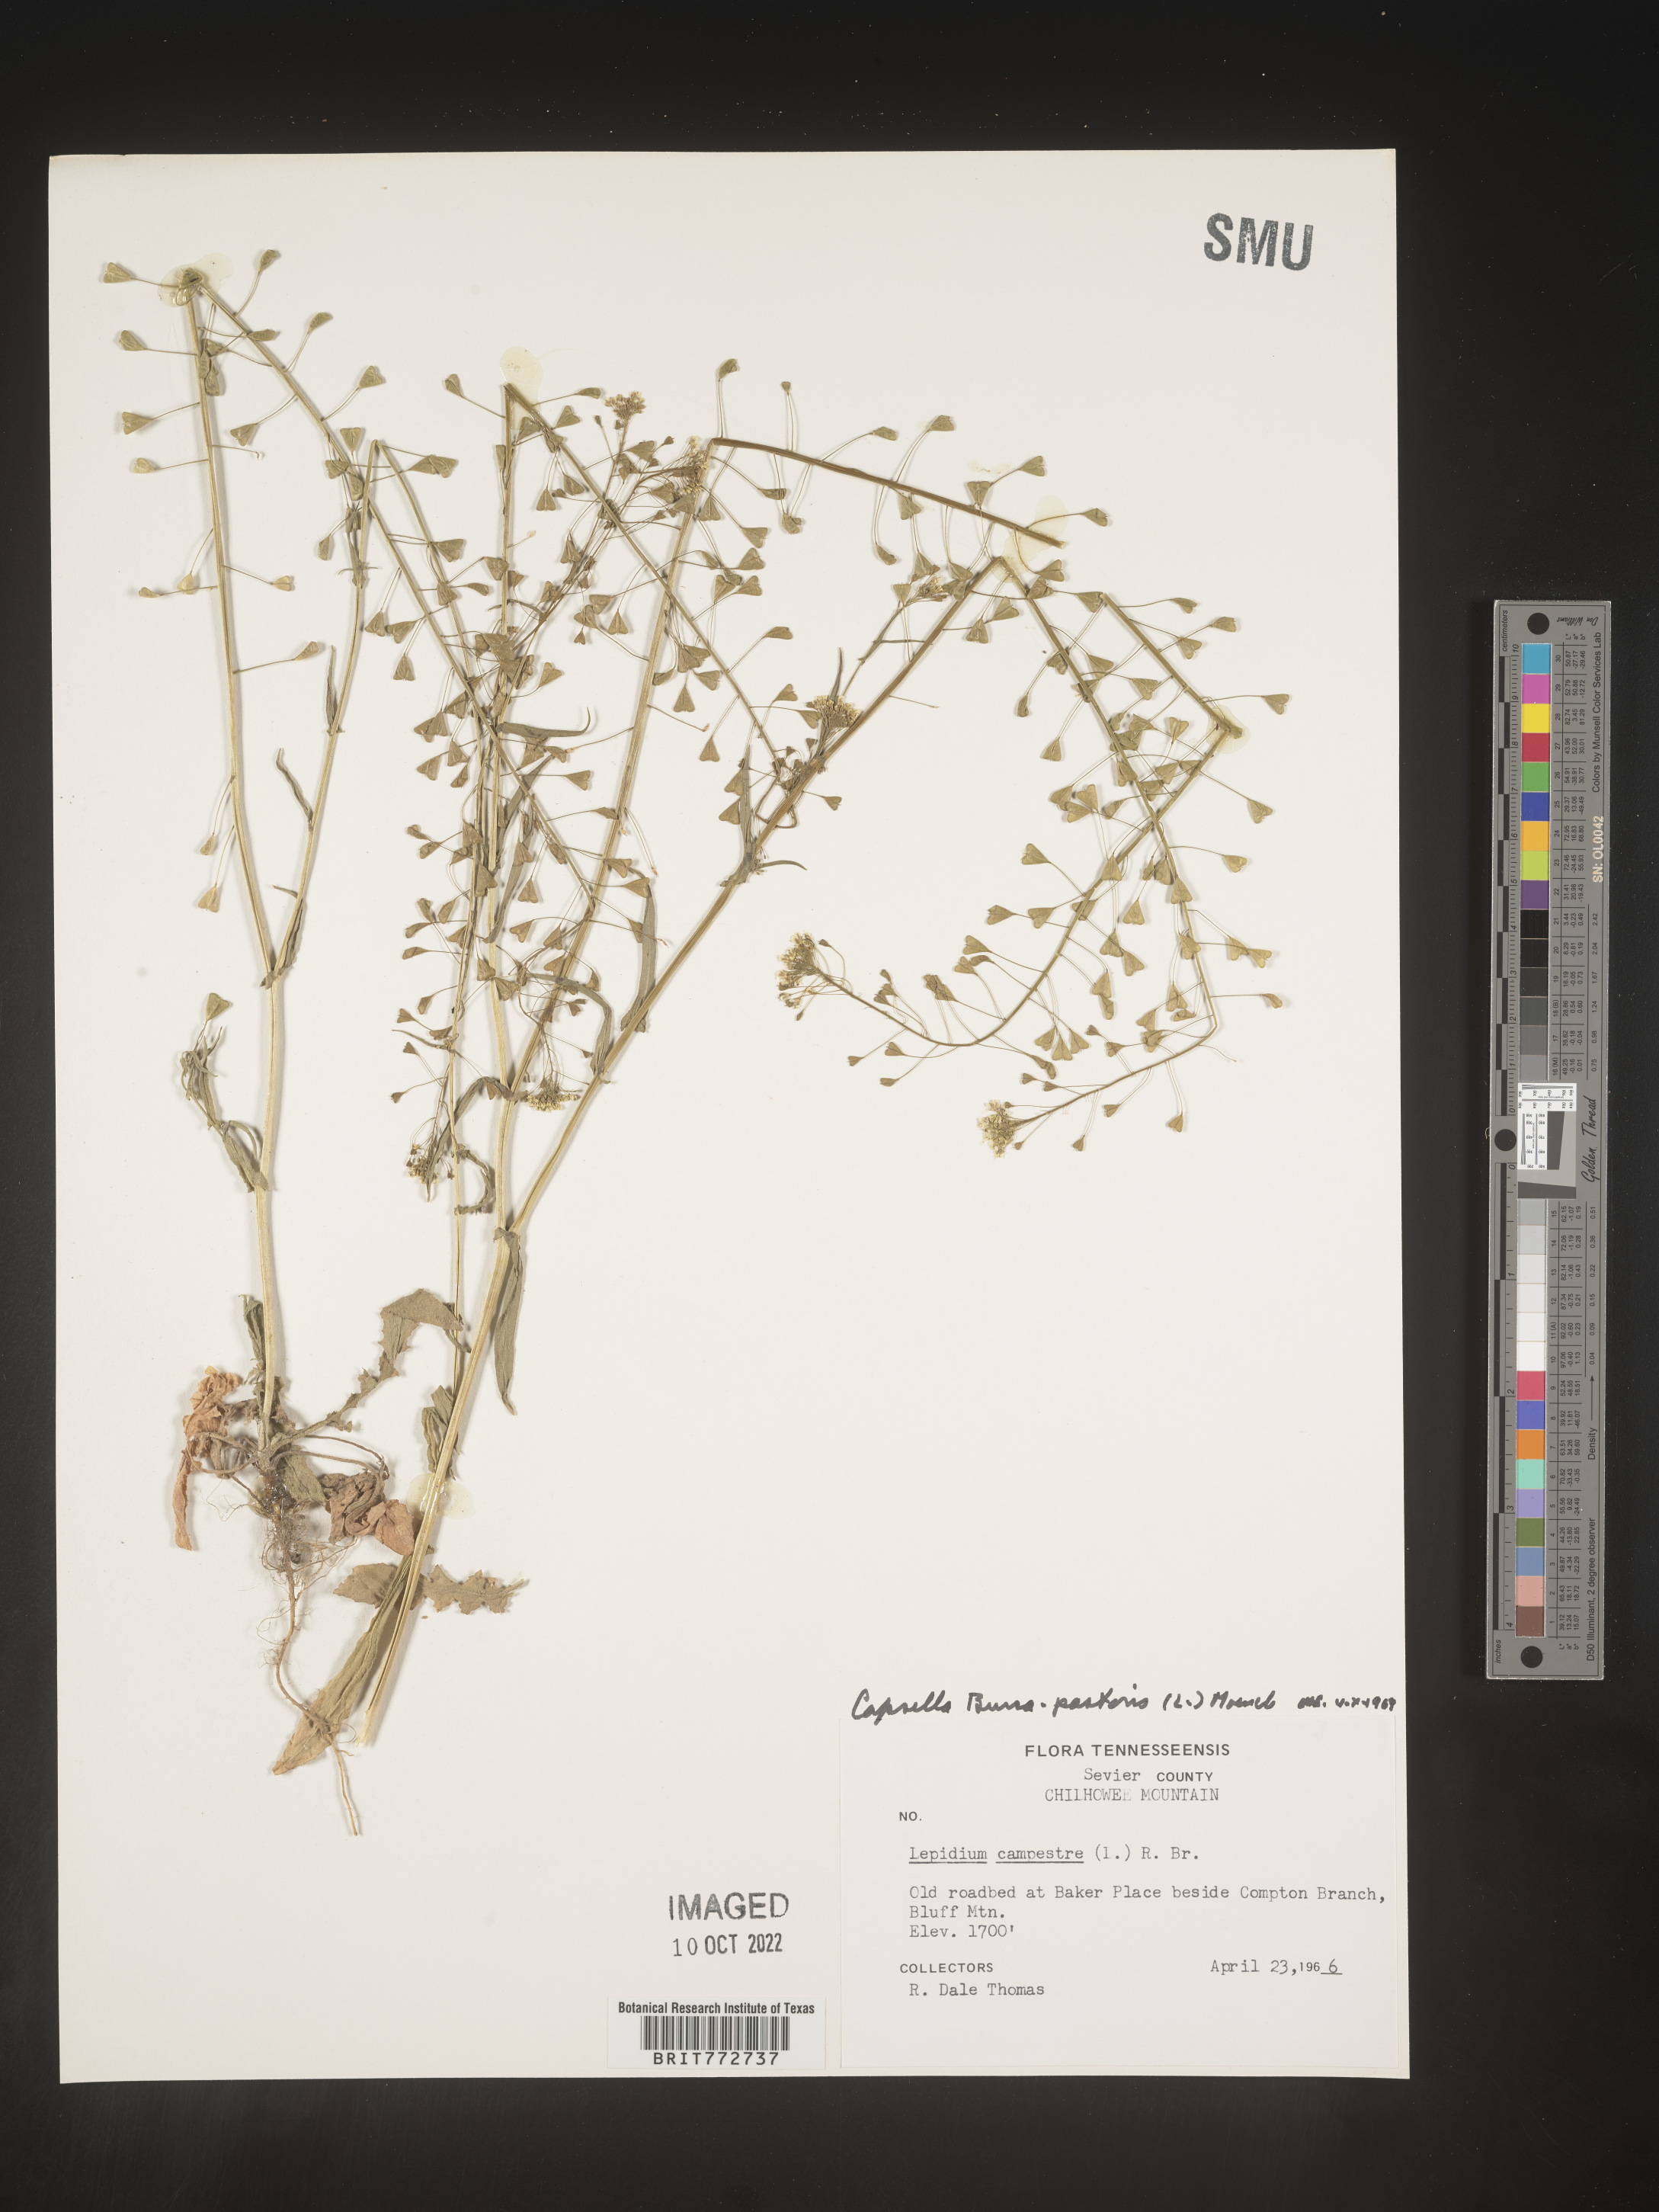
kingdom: Plantae
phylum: Tracheophyta
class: Magnoliopsida
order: Brassicales
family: Brassicaceae
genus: Capsella
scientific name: Capsella bursa-pastoris
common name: Shepherd's purse
